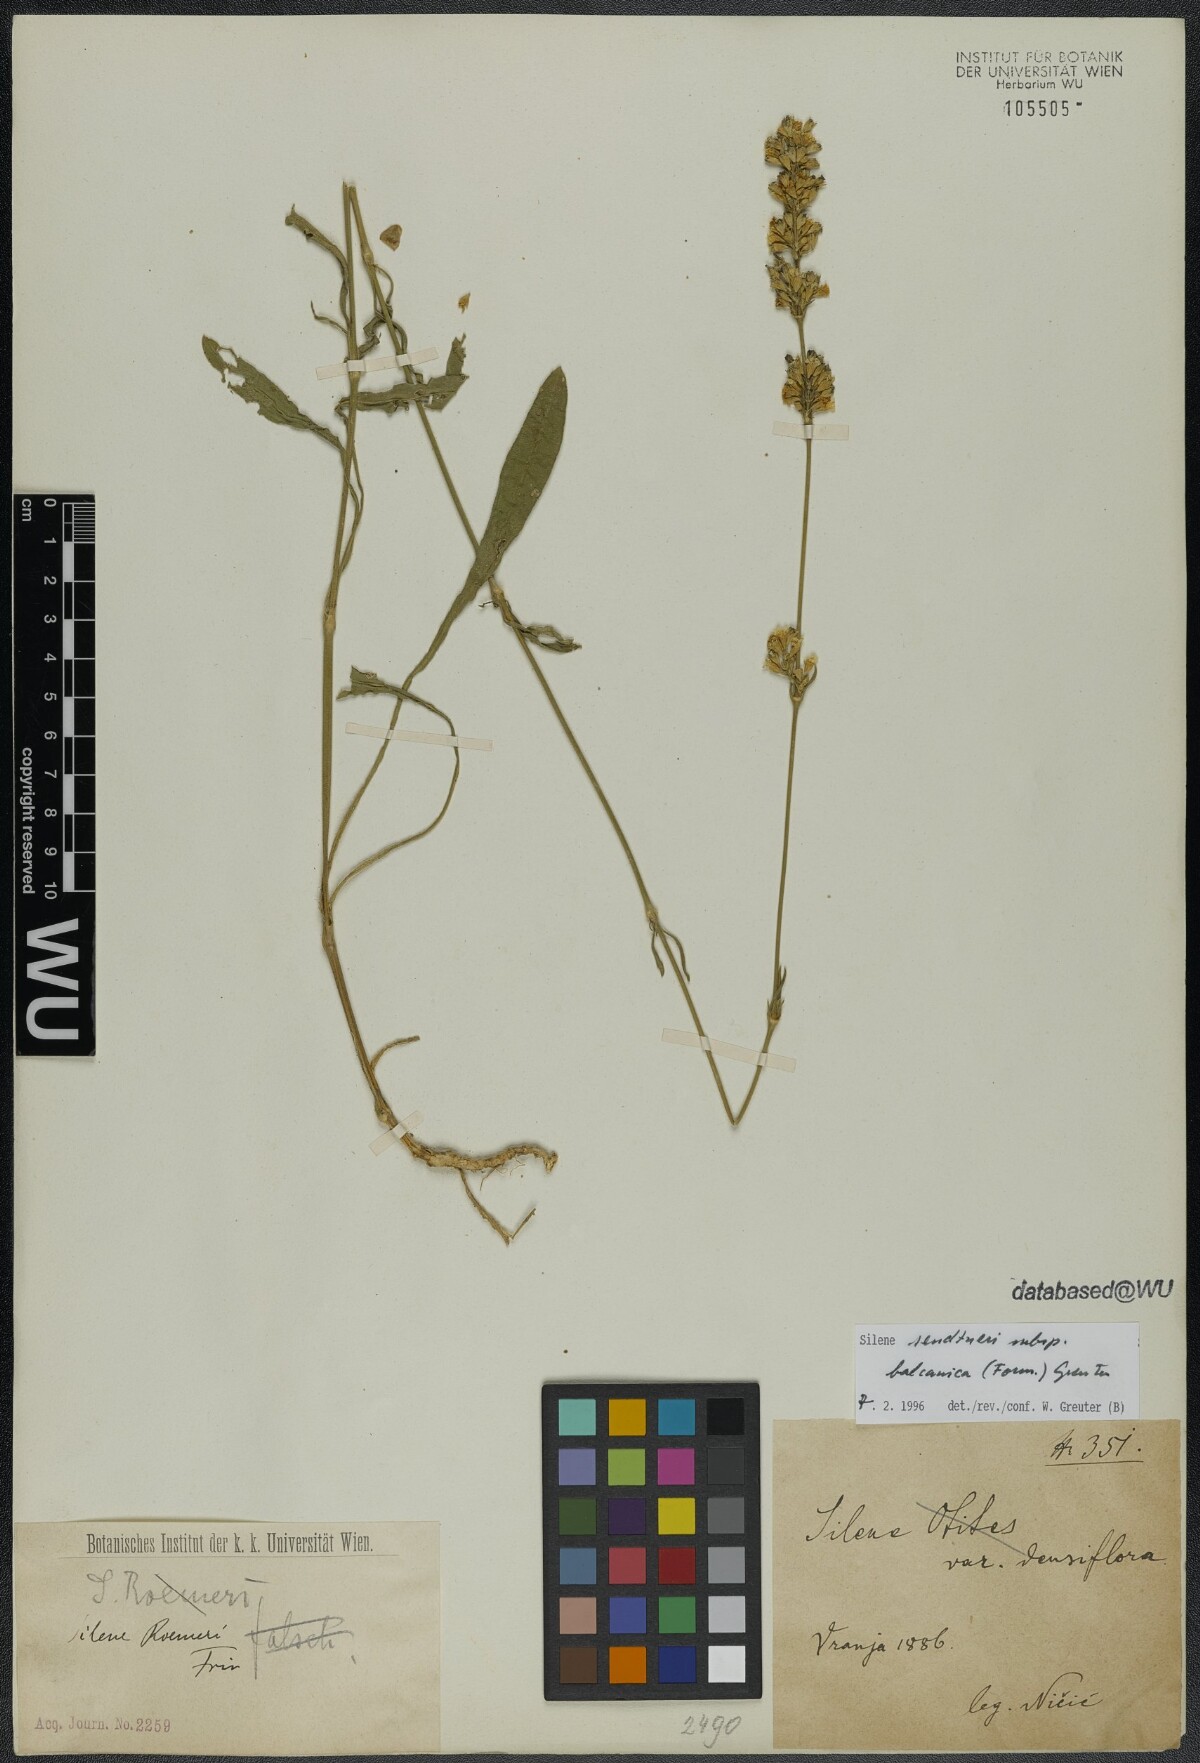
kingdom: Plantae
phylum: Tracheophyta
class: Magnoliopsida
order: Caryophyllales
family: Caryophyllaceae
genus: Silene
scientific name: Silene sendtneri
